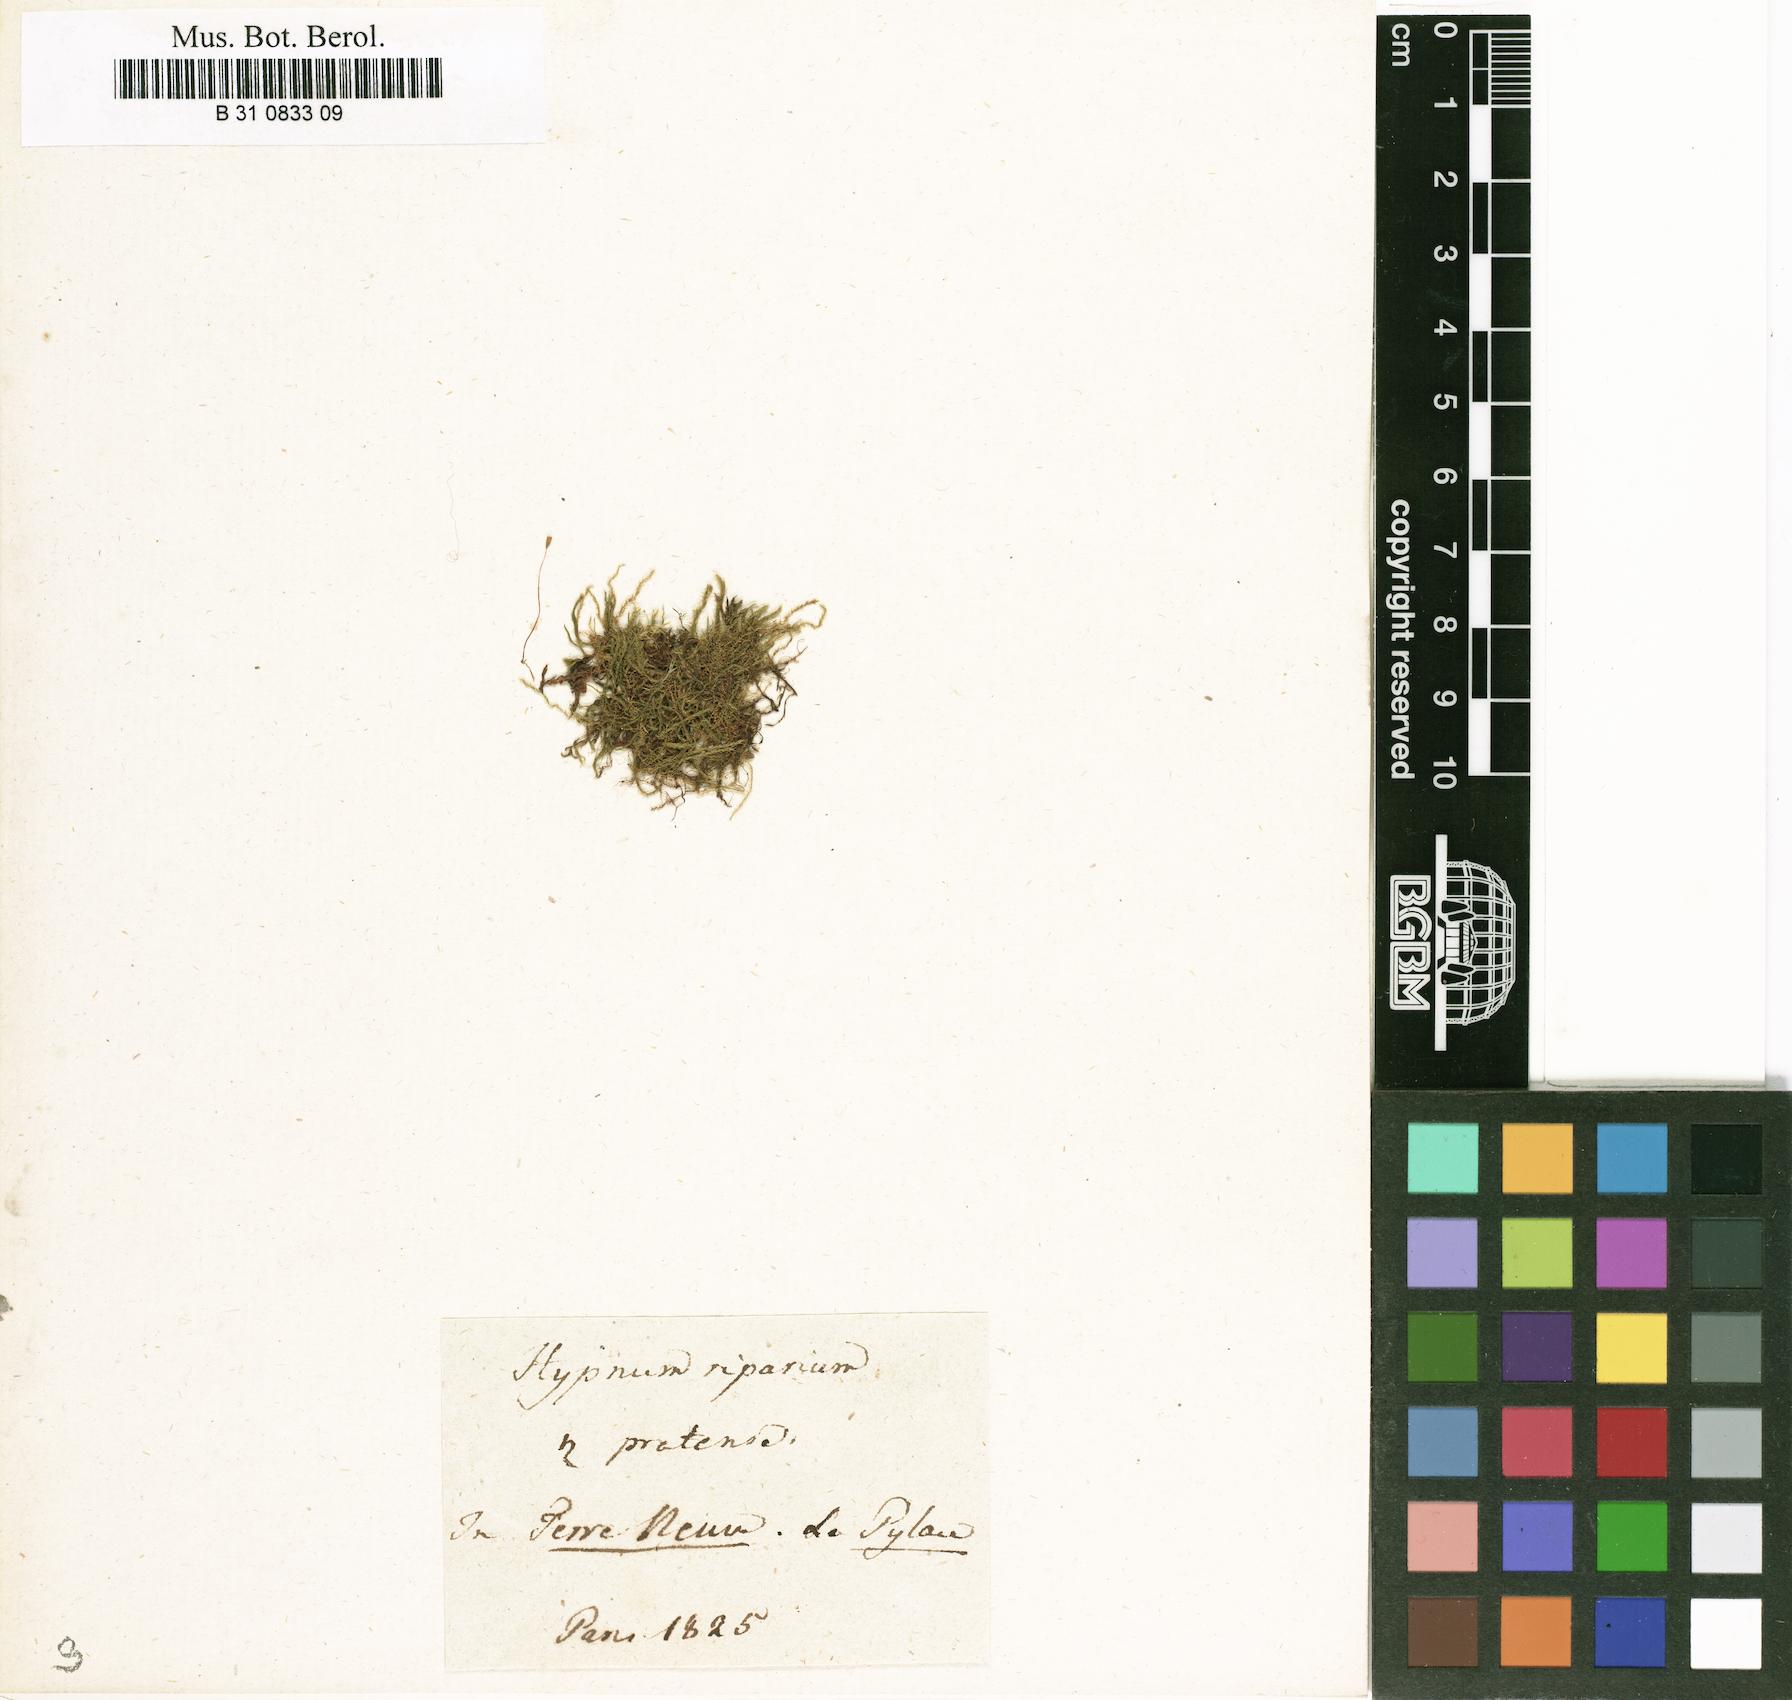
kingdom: Plantae
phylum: Bryophyta
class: Bryopsida
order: Hypnales
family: Amblystegiaceae
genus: Leptodictyum
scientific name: Leptodictyum riparium
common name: Riparian feather moss
